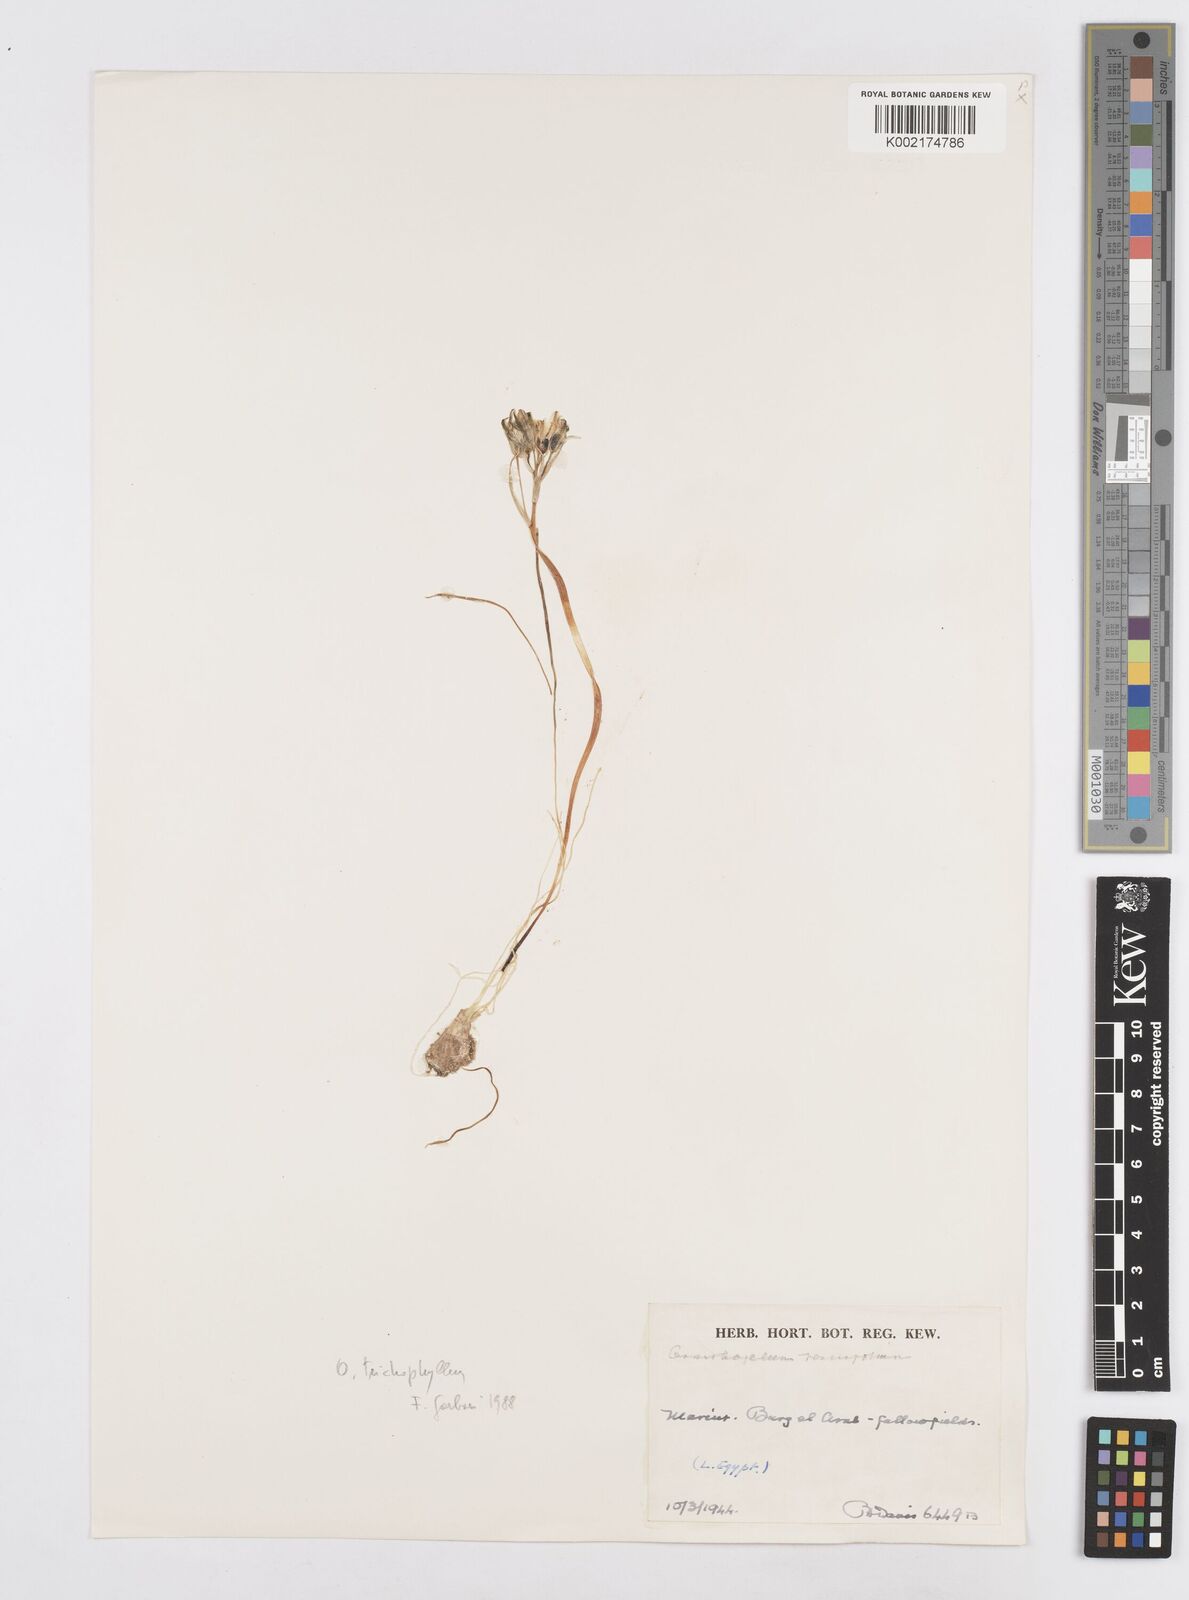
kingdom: Plantae
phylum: Tracheophyta
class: Liliopsida
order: Asparagales
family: Asparagaceae
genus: Ornithogalum
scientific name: Ornithogalum trichophyllum
